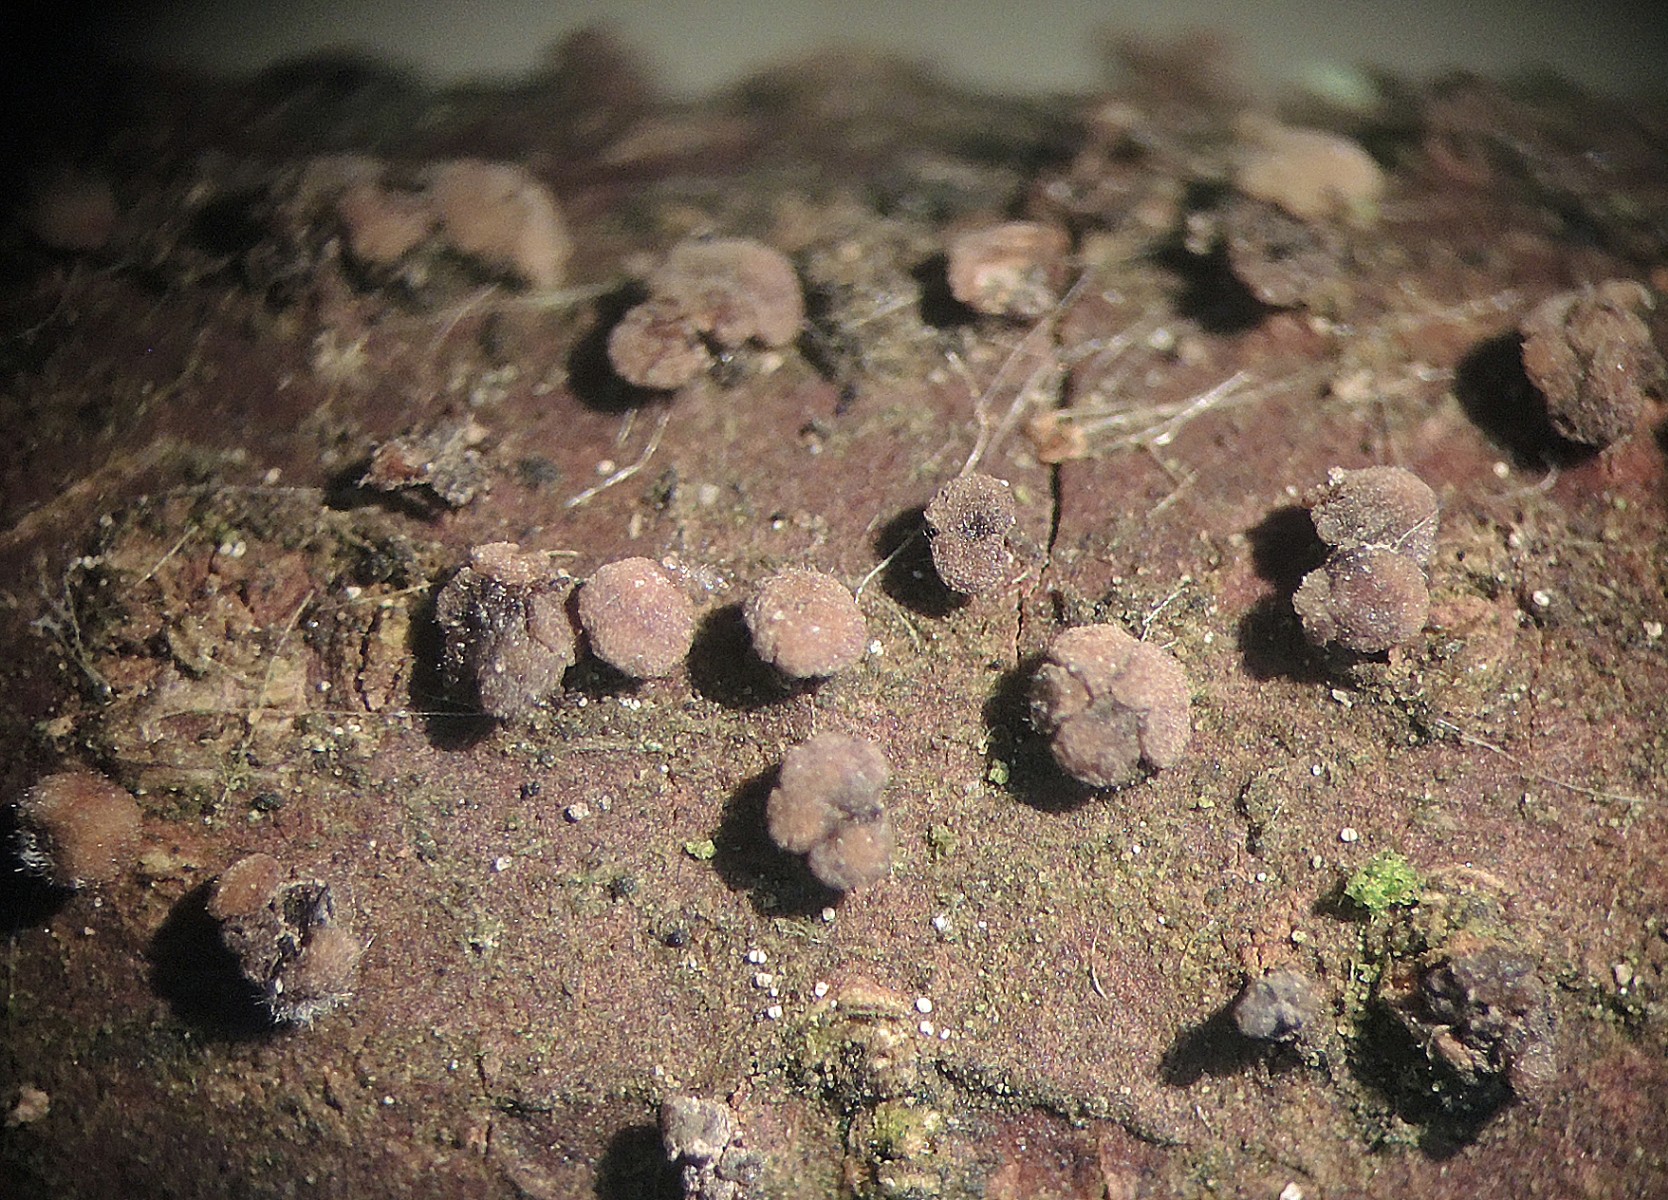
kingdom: Fungi
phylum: Ascomycota
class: Leotiomycetes
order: Helotiales
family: Dermateaceae
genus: Pezicula
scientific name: Pezicula frangulae
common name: sortnende klyngeskive
